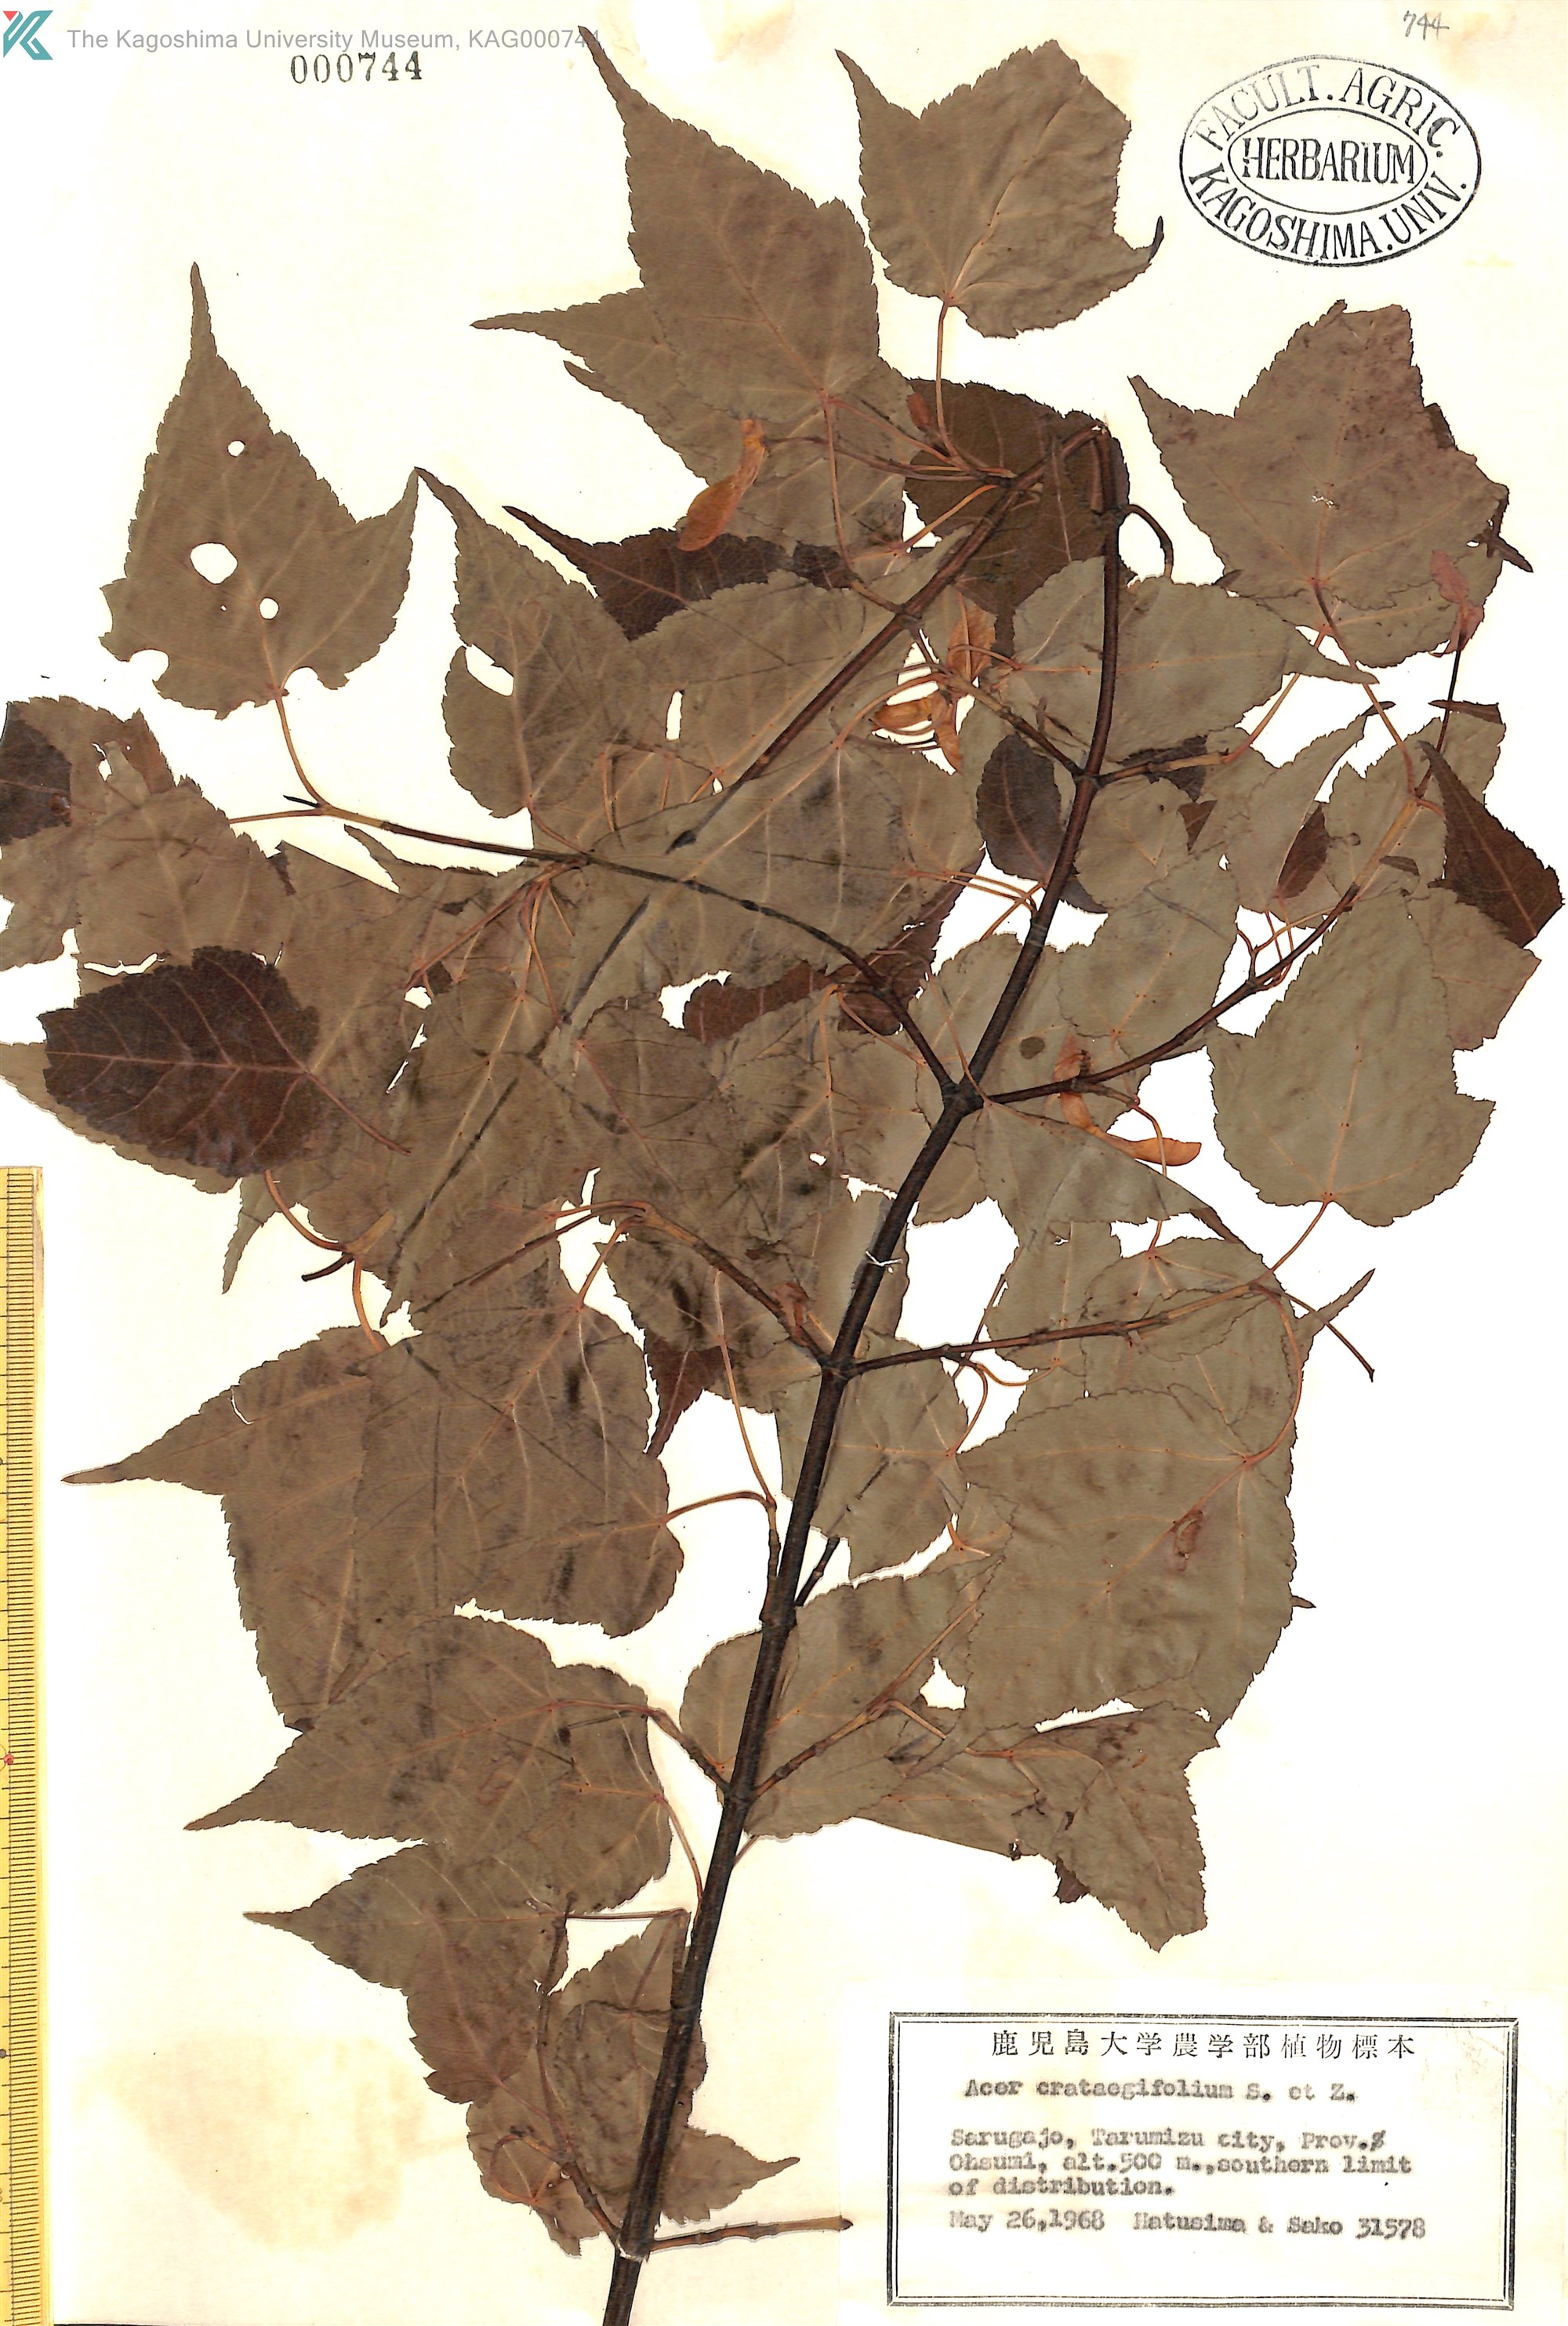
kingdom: Plantae
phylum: Tracheophyta
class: Magnoliopsida
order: Sapindales
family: Sapindaceae
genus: Acer
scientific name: Acer crataegifolium
